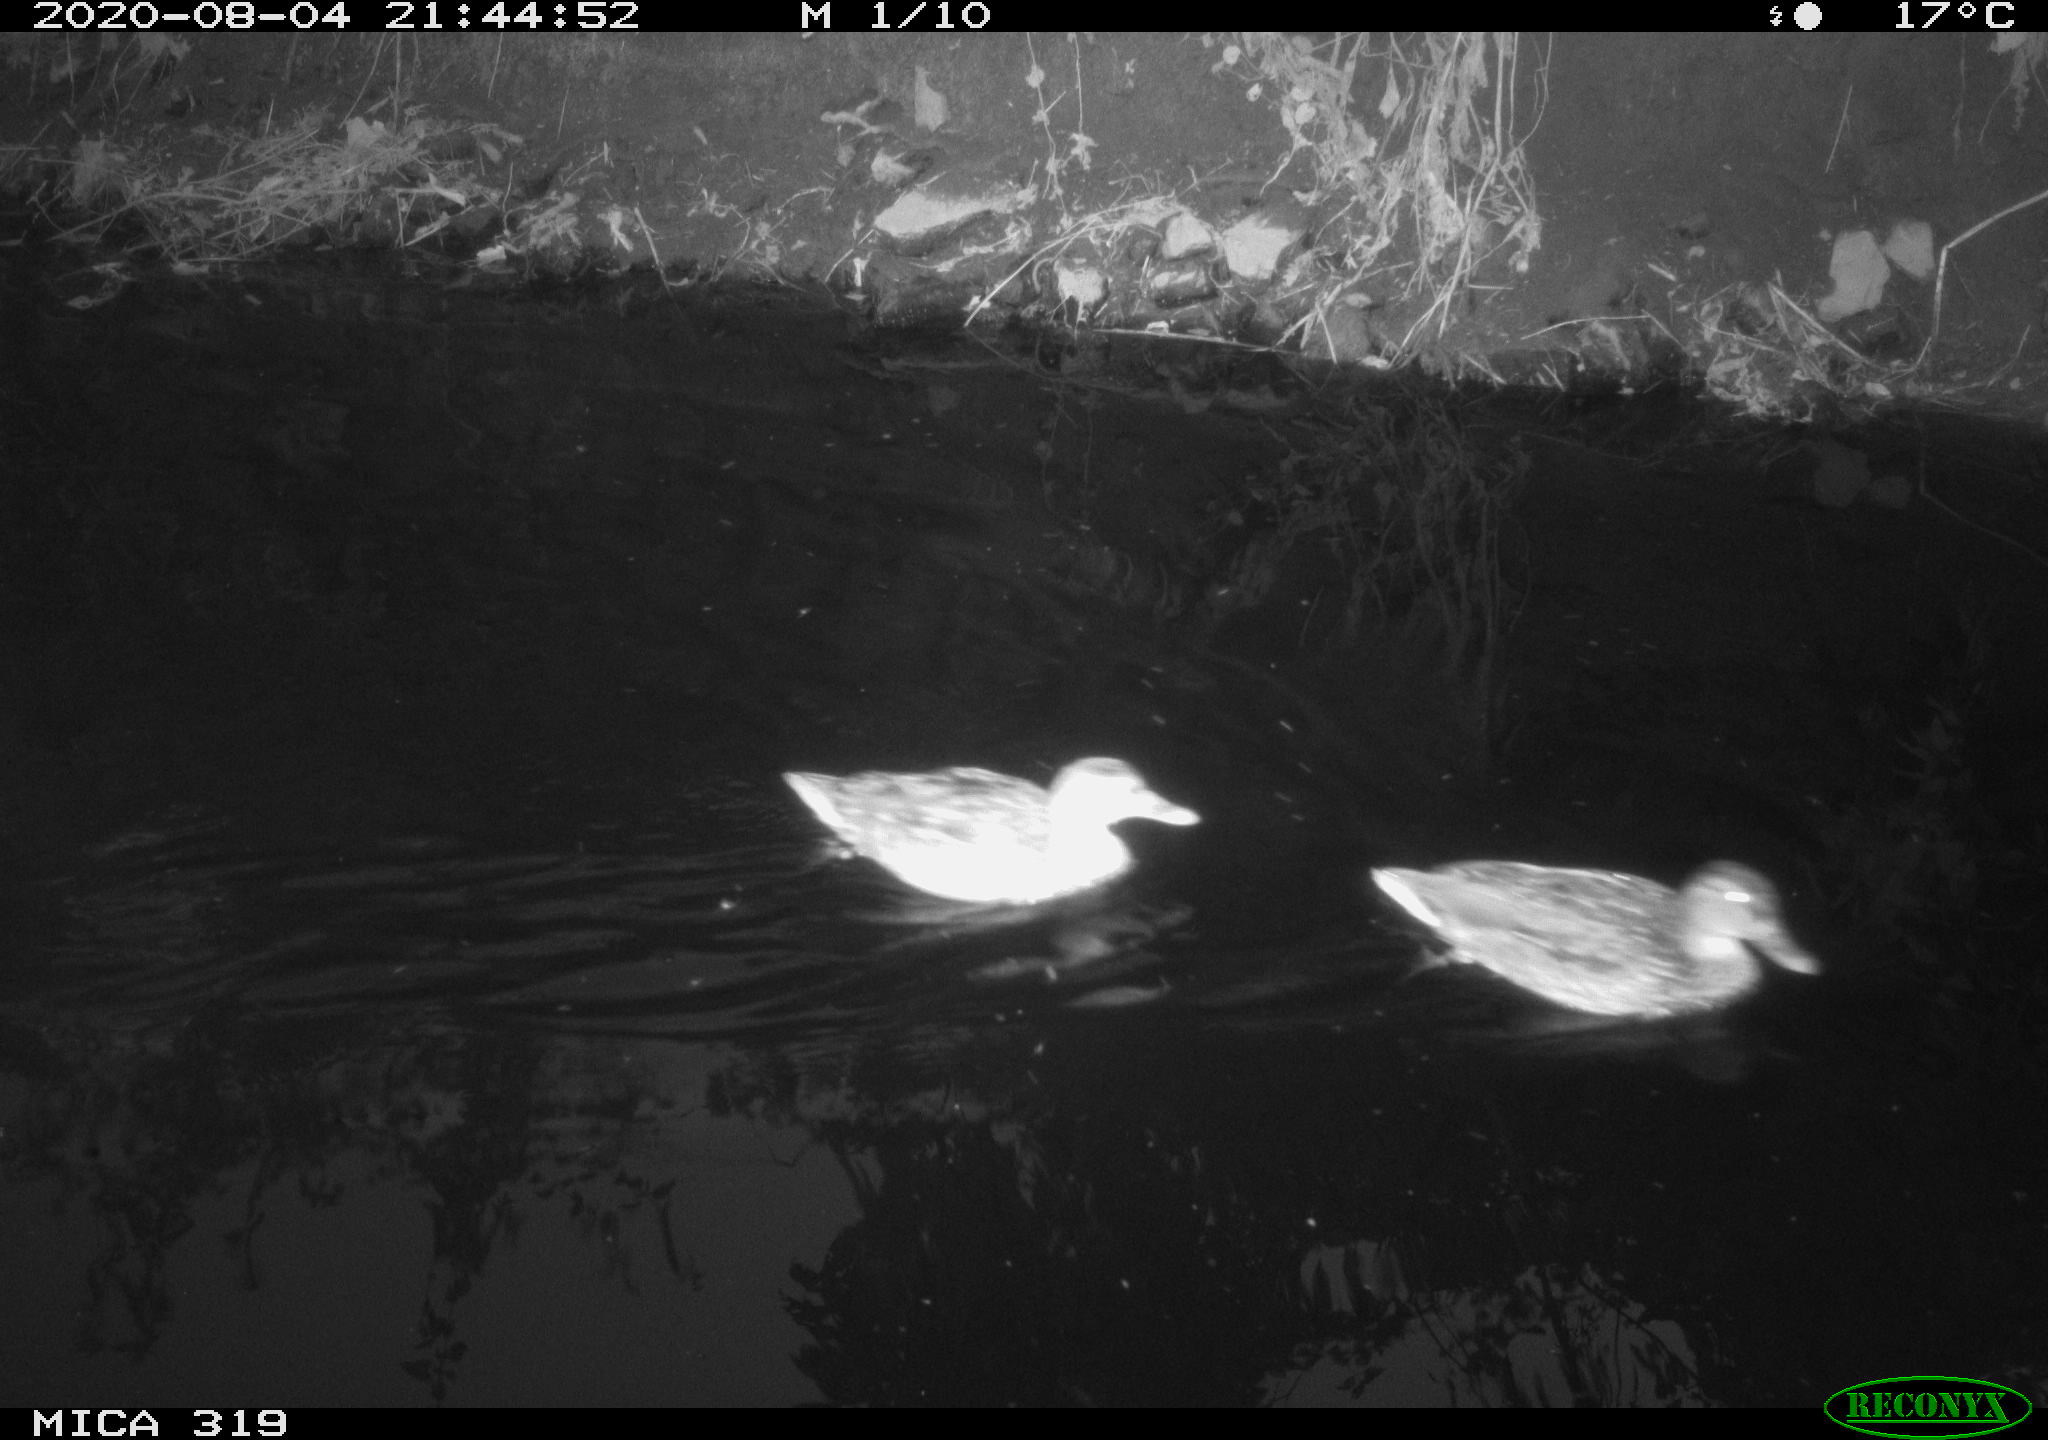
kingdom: Animalia
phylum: Chordata
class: Aves
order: Anseriformes
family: Anatidae
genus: Anas
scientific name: Anas platyrhynchos
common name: Mallard
